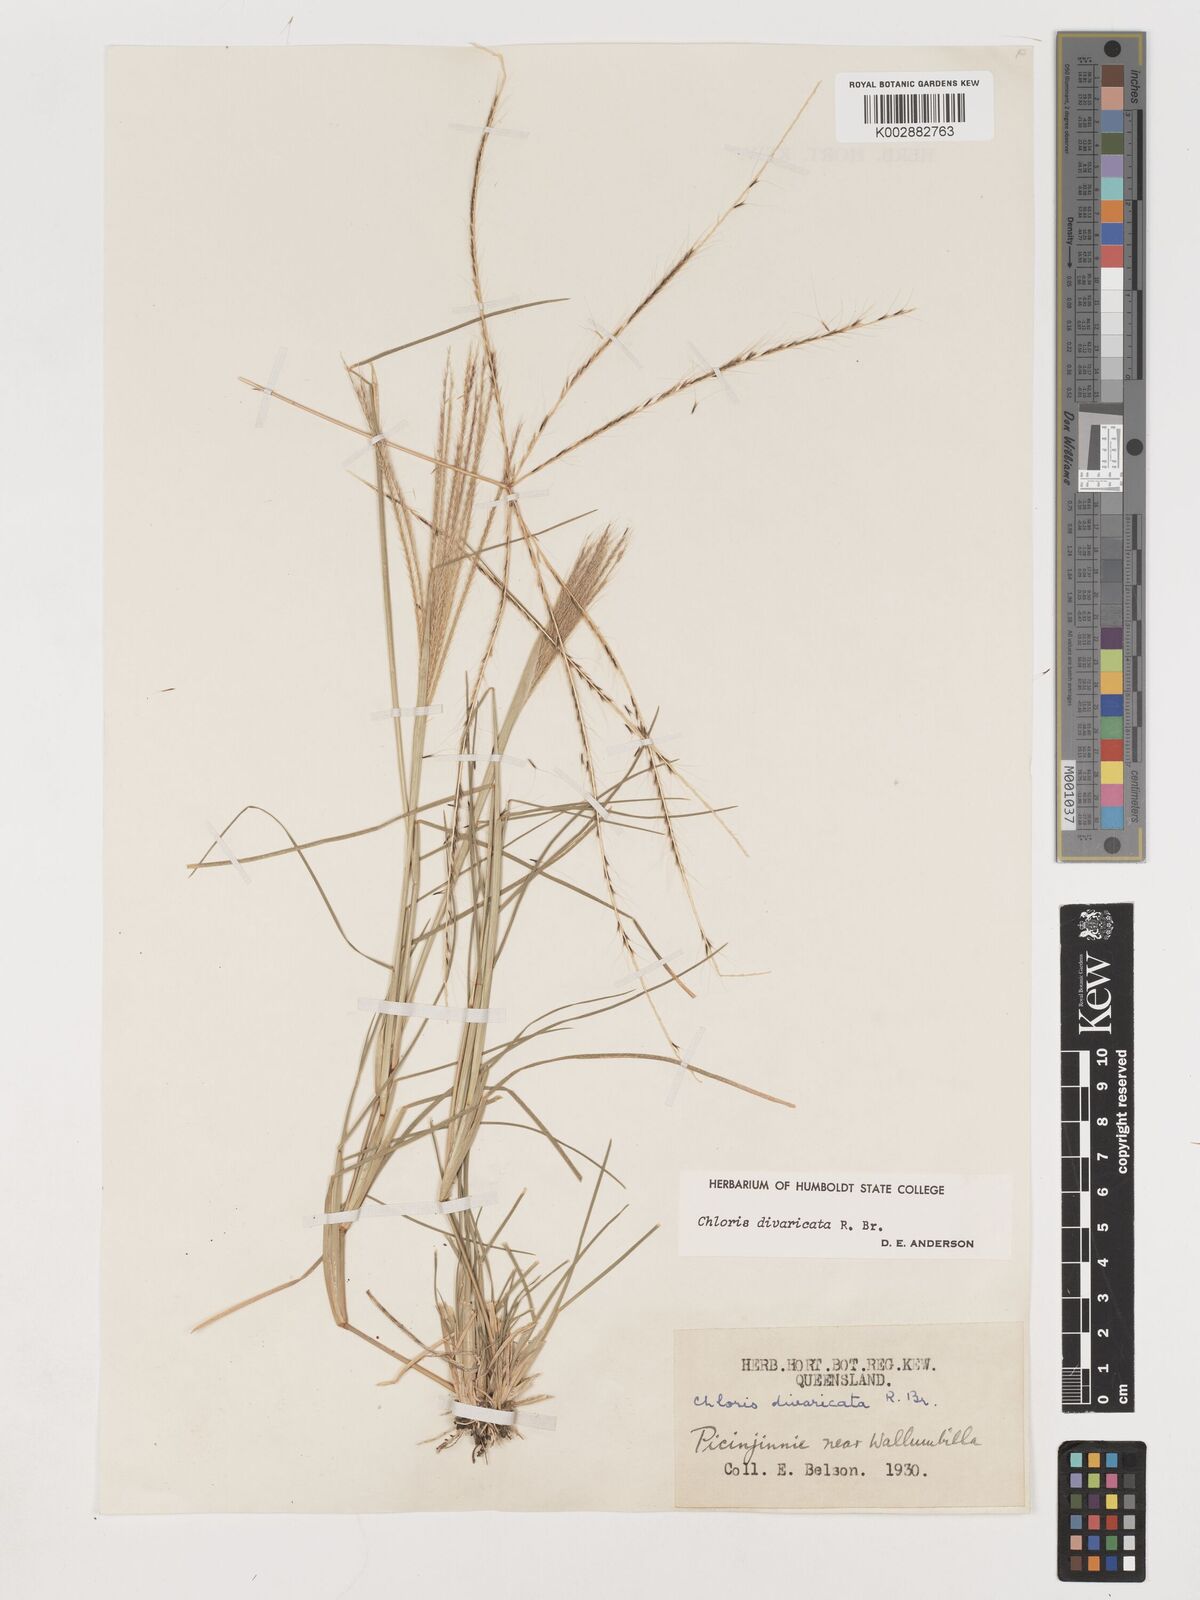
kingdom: Plantae
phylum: Tracheophyta
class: Liliopsida
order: Poales
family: Poaceae
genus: Chloris
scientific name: Chloris divaricata
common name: Spreading windmill grass
